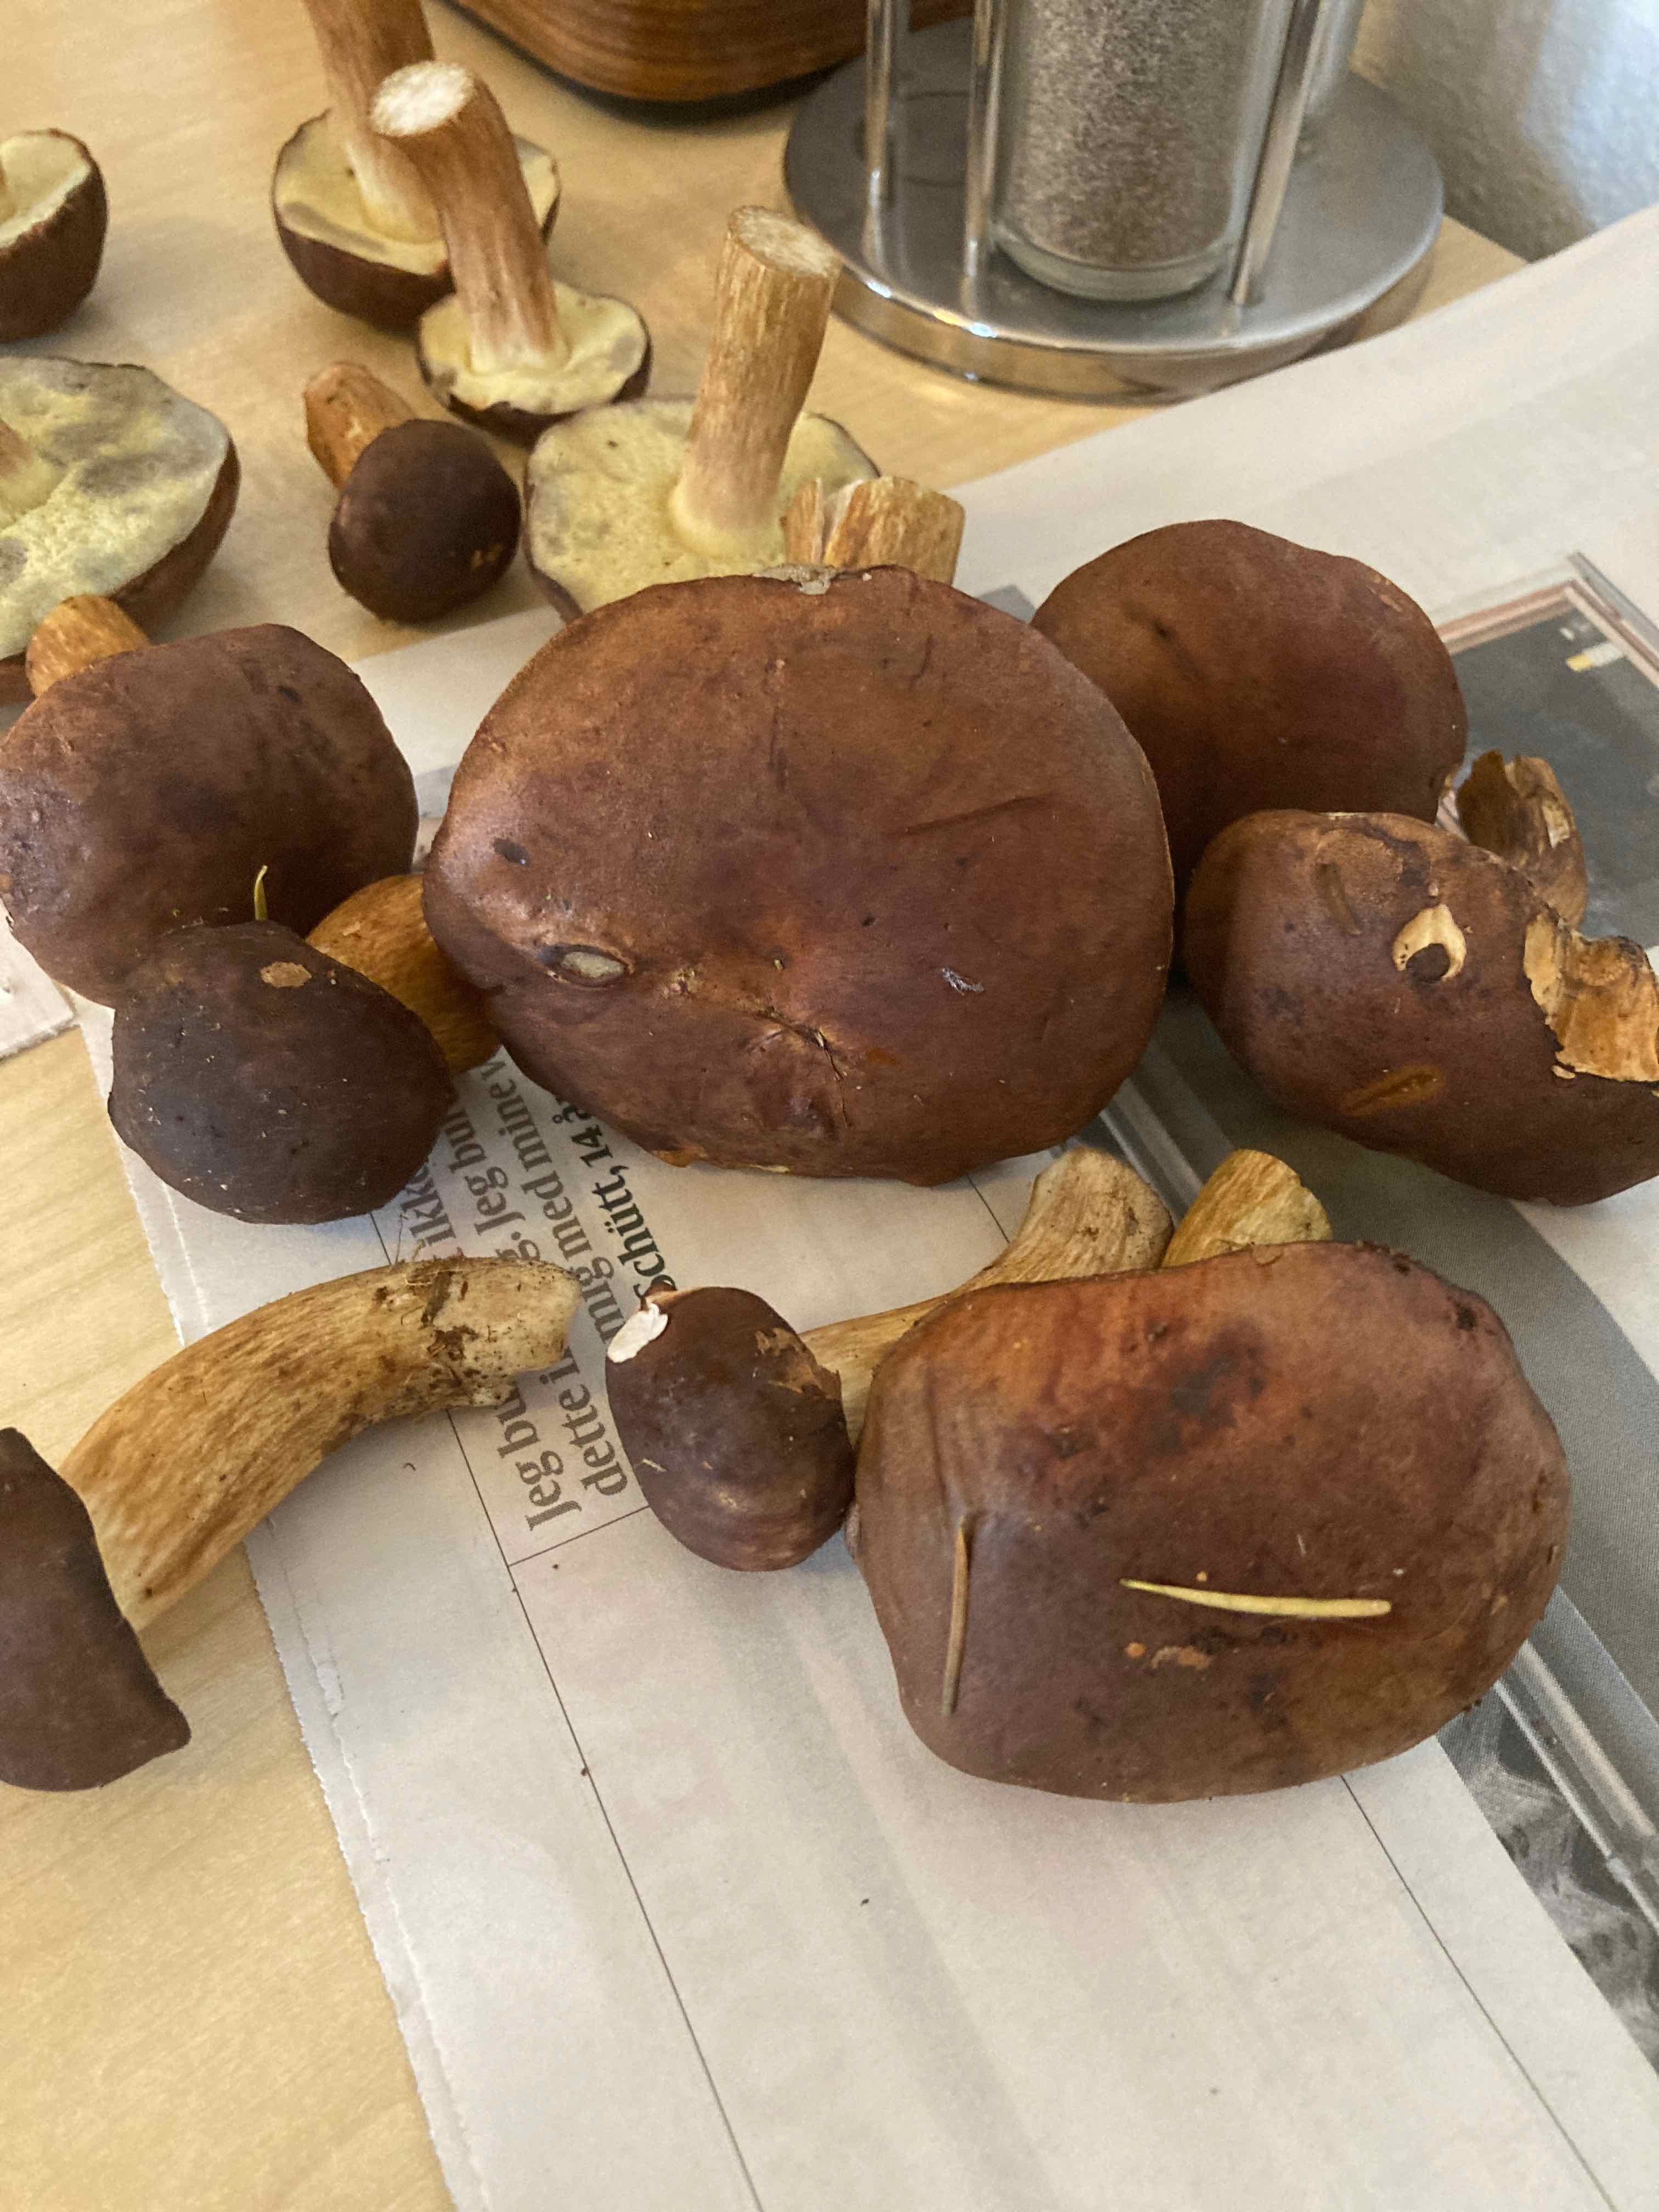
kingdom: Fungi
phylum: Basidiomycota
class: Agaricomycetes
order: Boletales
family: Boletaceae
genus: Imleria
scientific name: Imleria badia
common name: brunstokket rørhat
